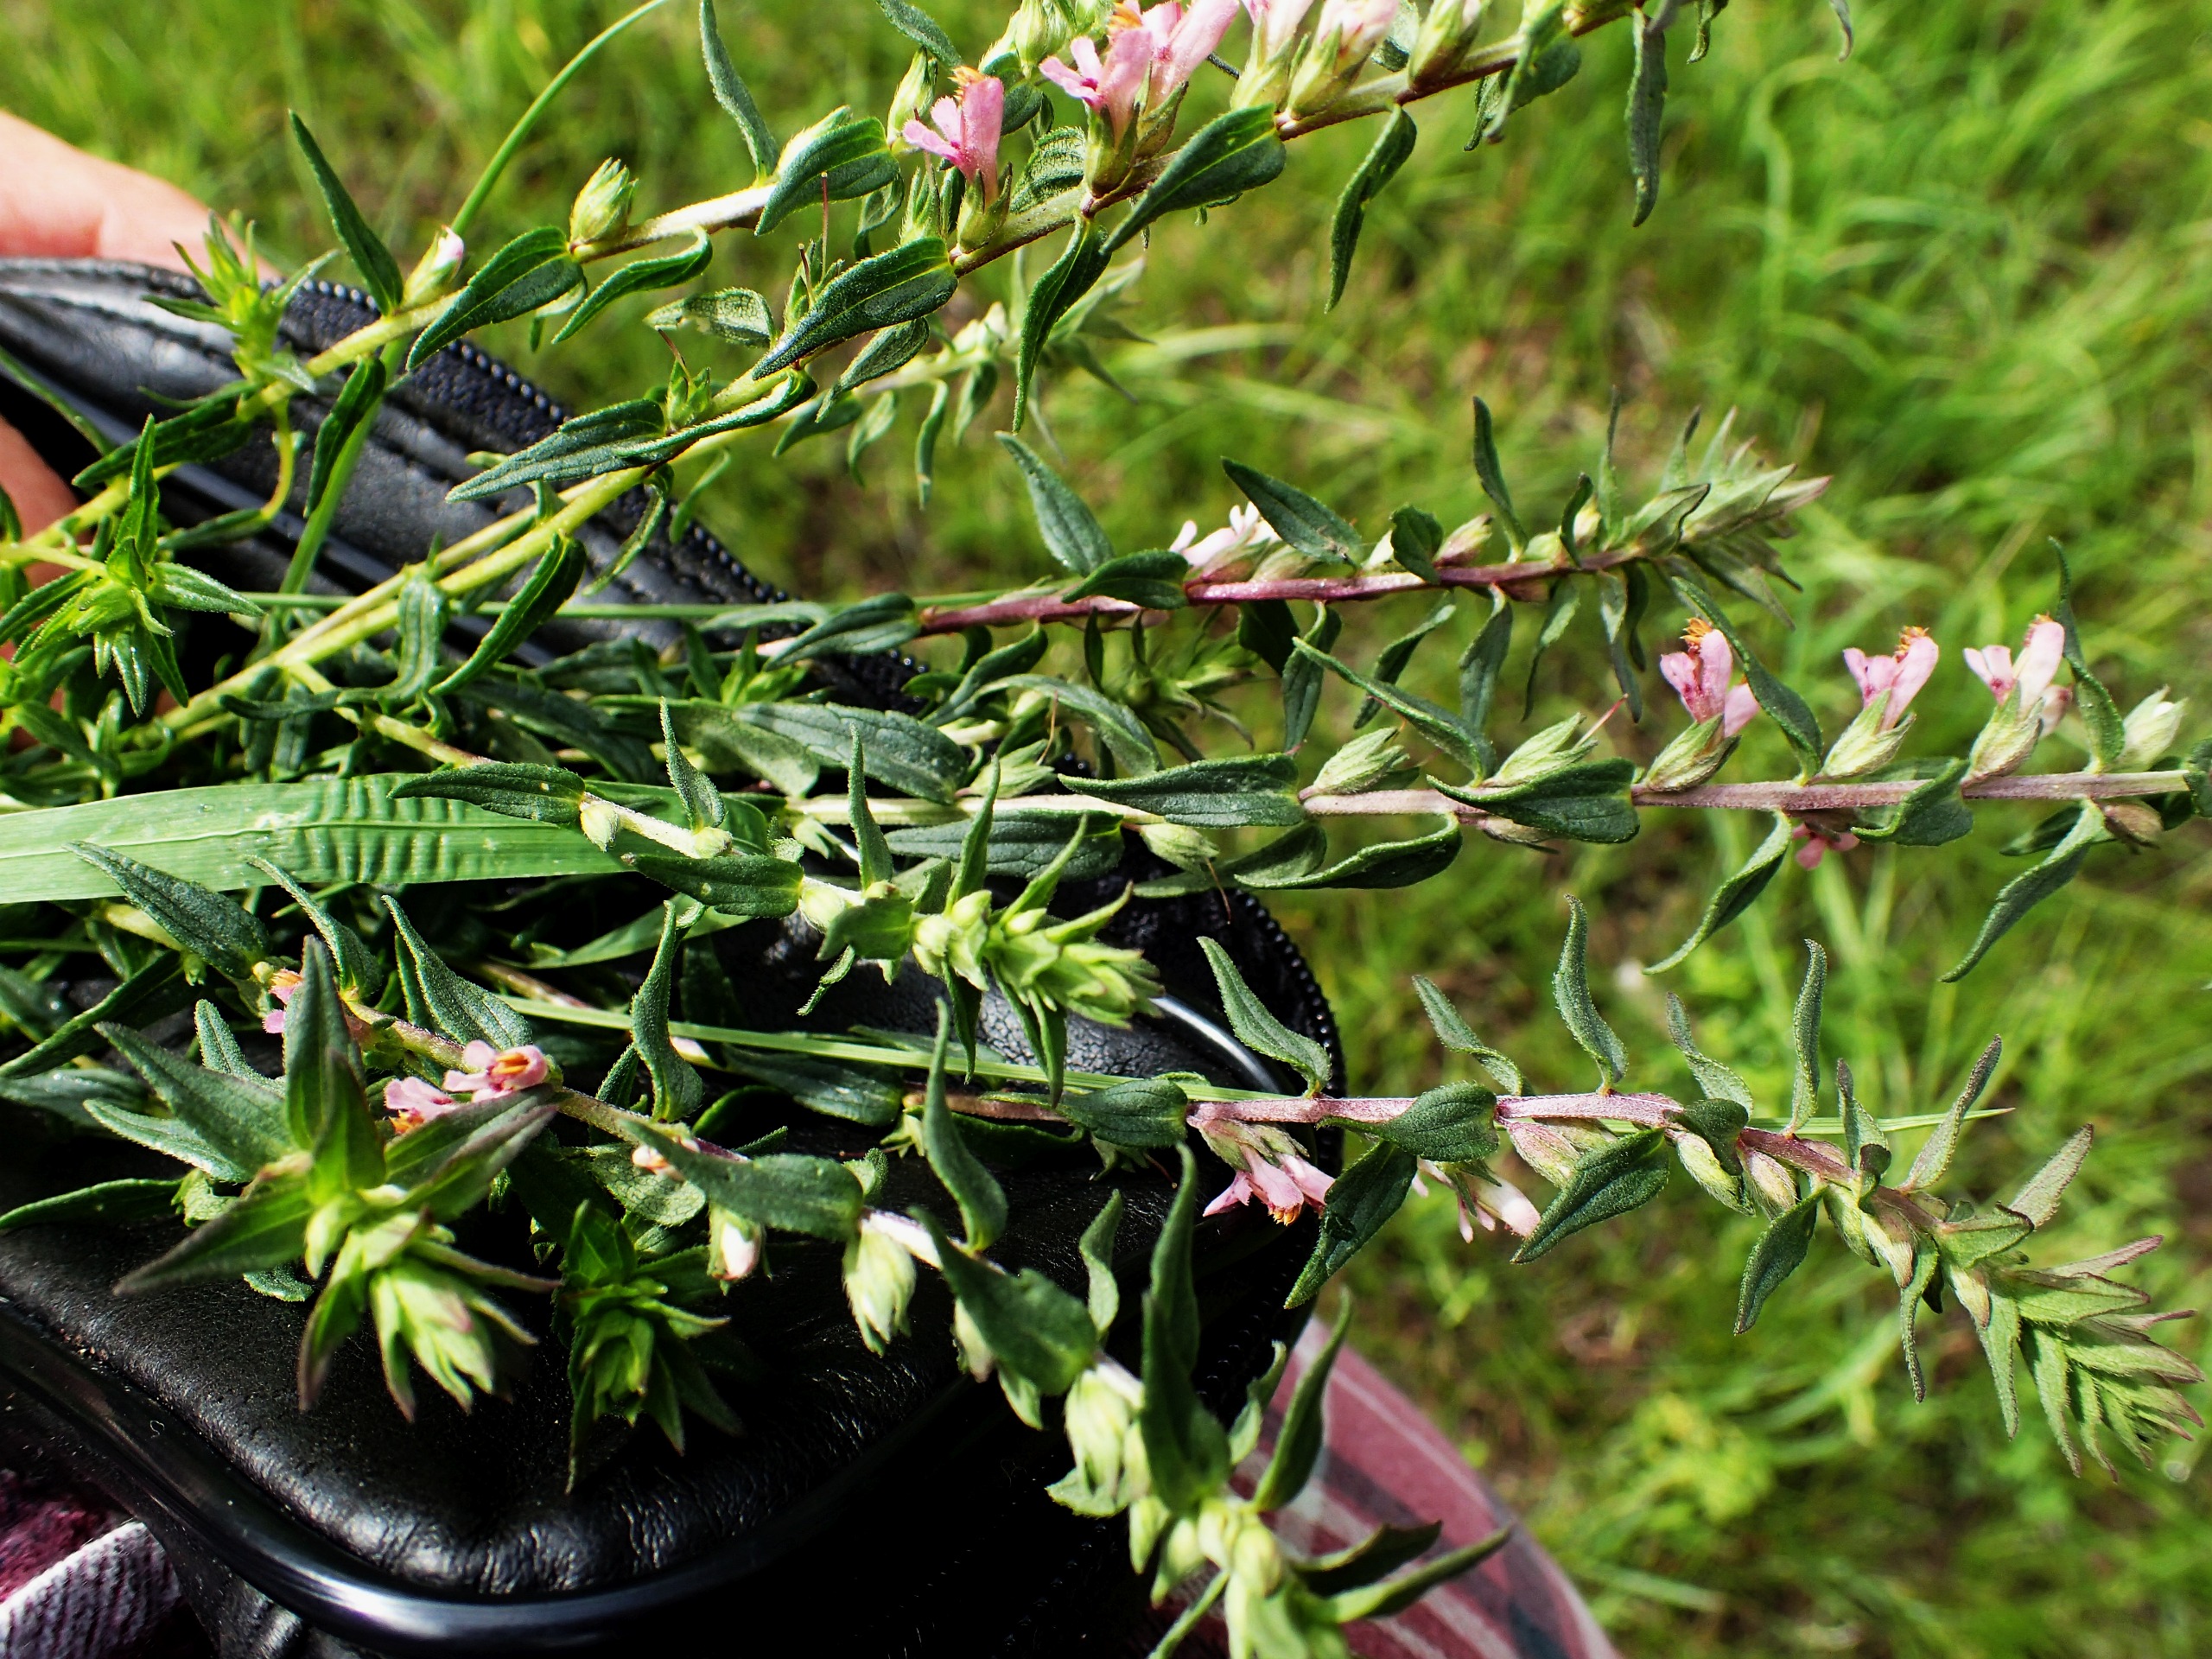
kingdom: Plantae
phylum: Tracheophyta
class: Magnoliopsida
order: Lamiales
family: Orobanchaceae
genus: Odontites
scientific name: Odontites vernus
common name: Mark-rødtop
